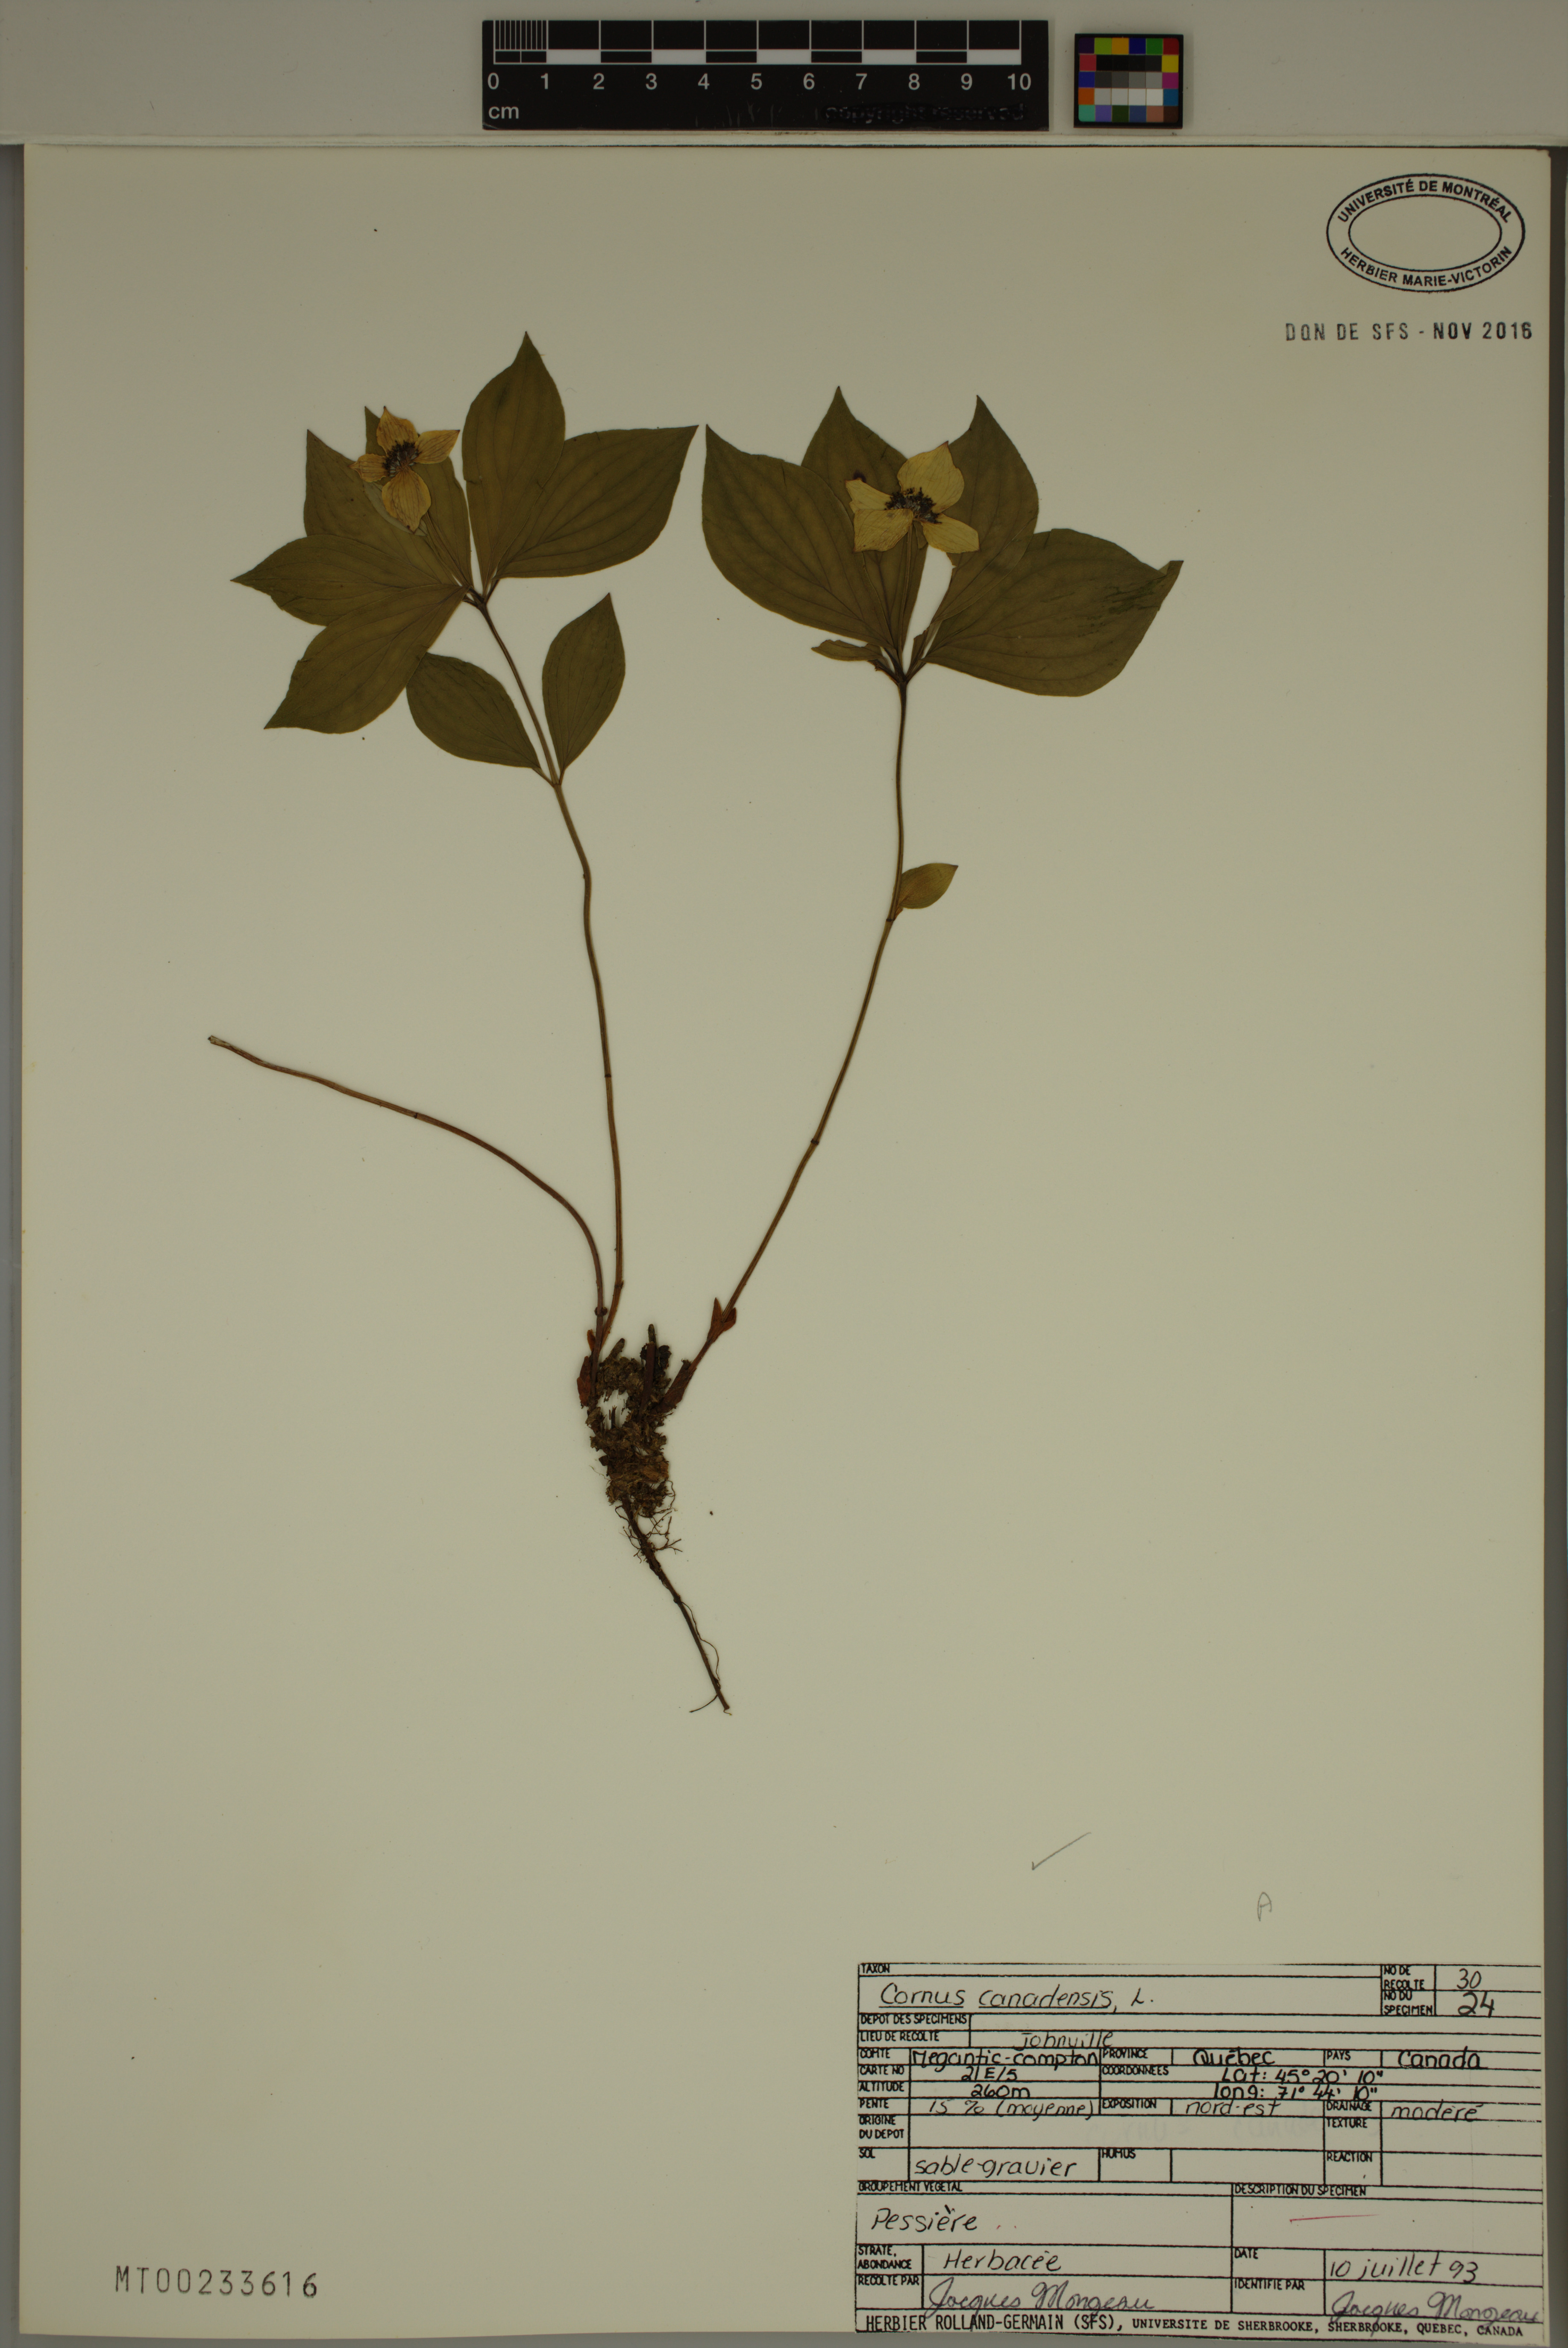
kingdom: Plantae
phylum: Tracheophyta
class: Magnoliopsida
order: Cornales
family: Cornaceae
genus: Cornus
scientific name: Cornus canadensis
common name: Creeping dogwood
